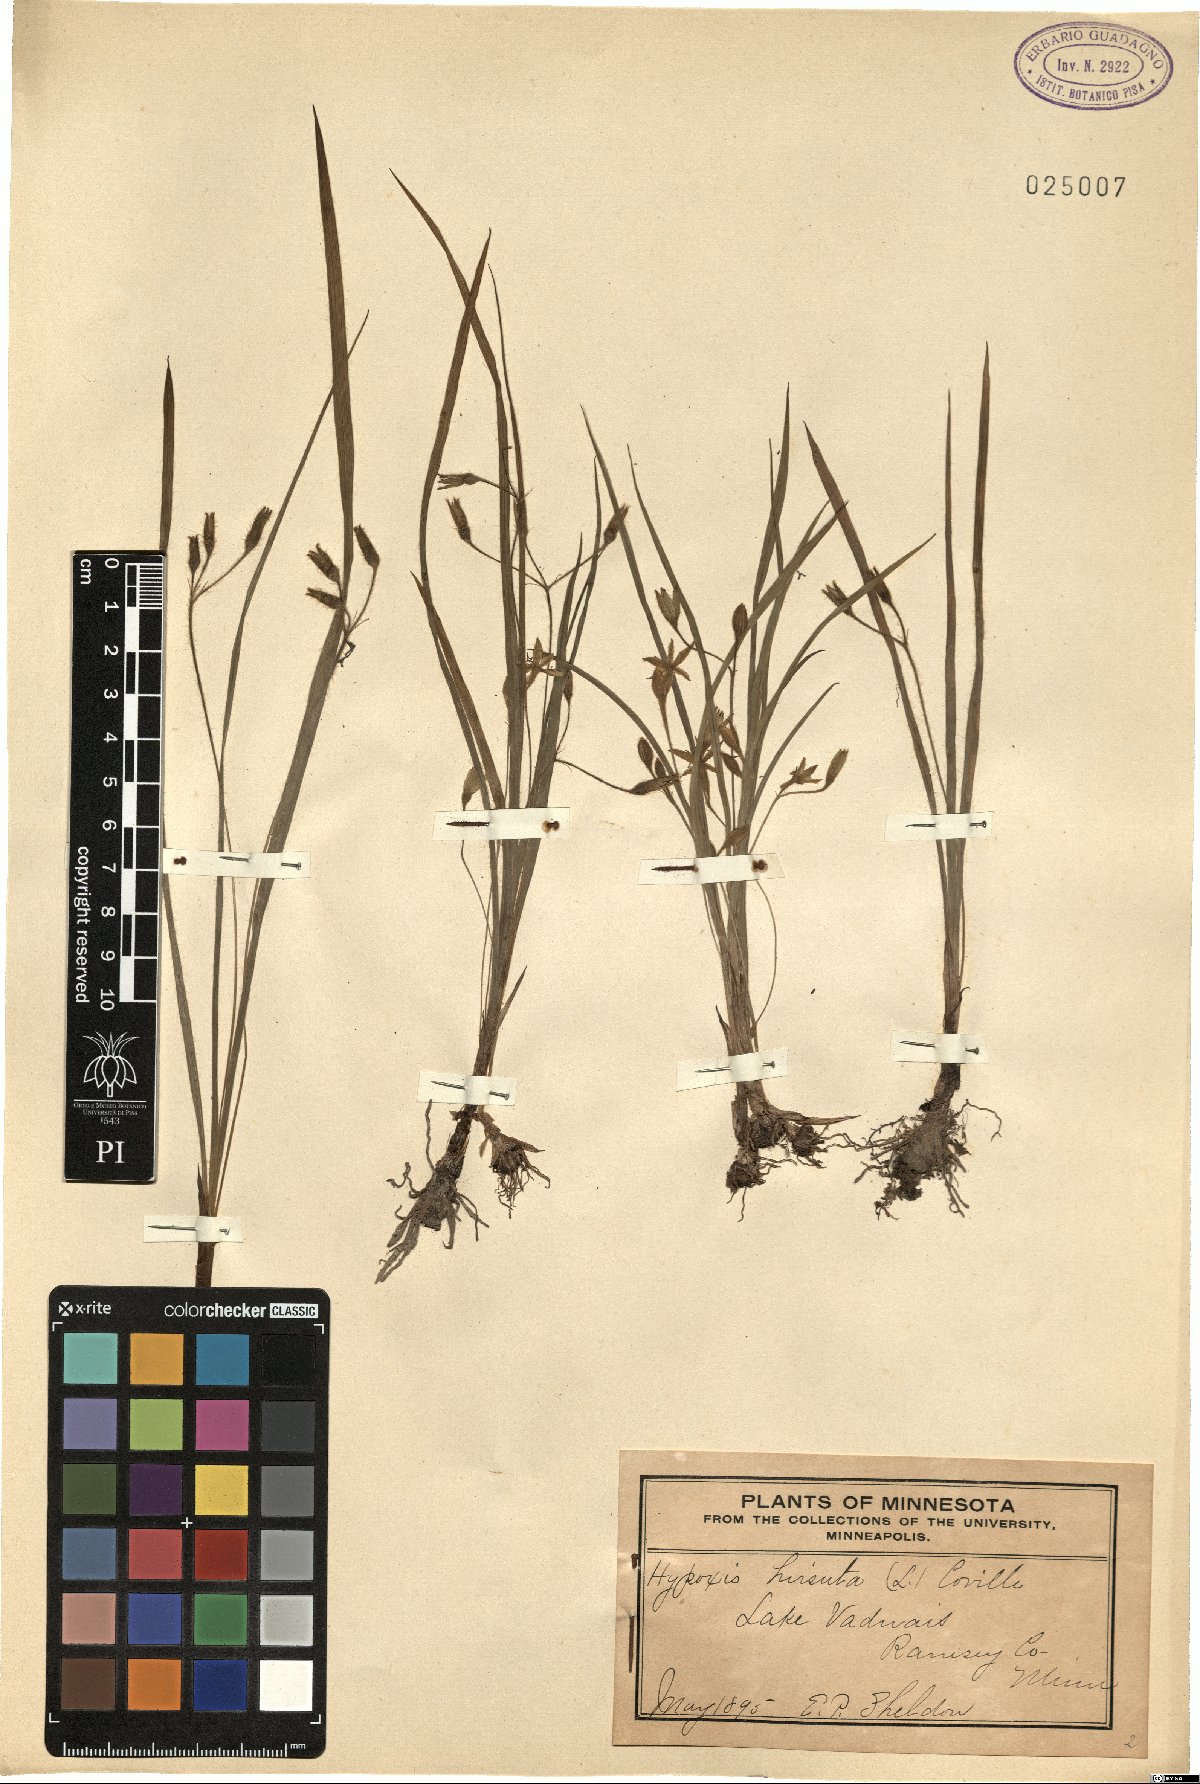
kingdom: Plantae
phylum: Tracheophyta
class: Liliopsida
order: Asparagales
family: Hypoxidaceae
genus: Hypoxis
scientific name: Hypoxis hirsuta
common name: Common goldstar
